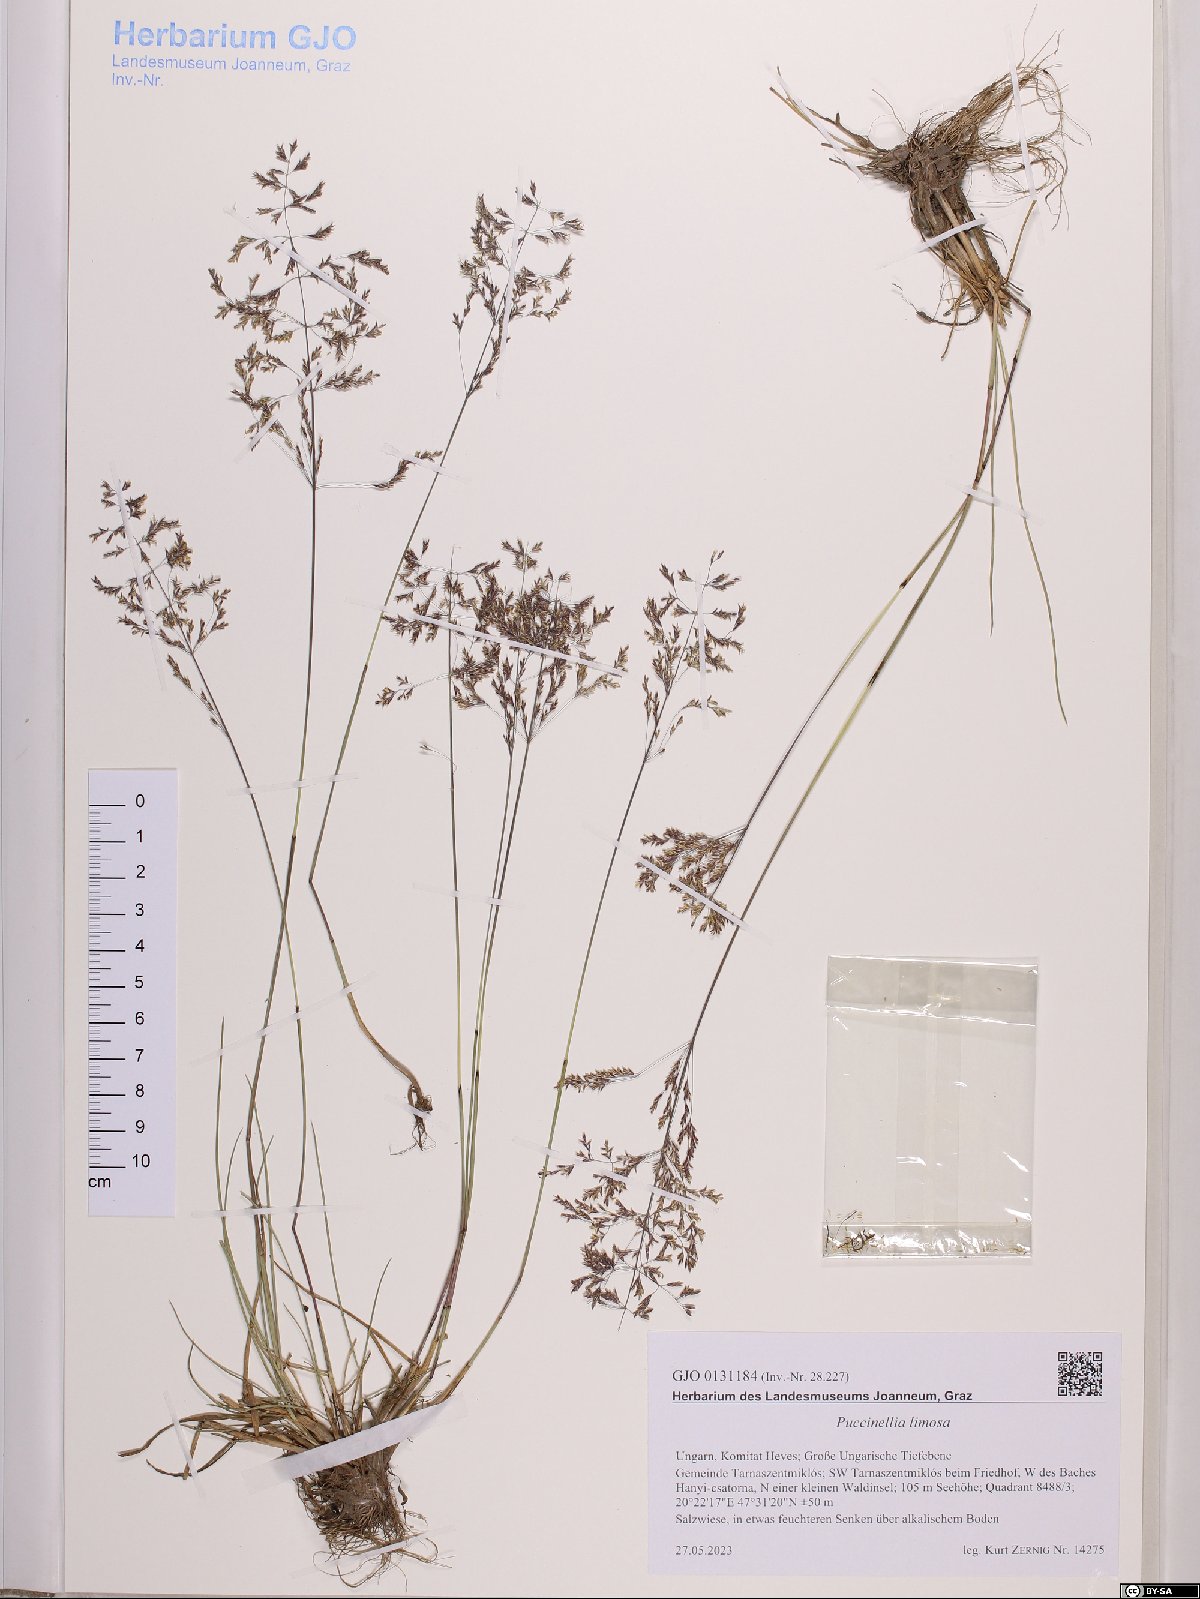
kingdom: Plantae
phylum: Tracheophyta
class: Liliopsida
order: Poales
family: Poaceae
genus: Puccinellia
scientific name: Puccinellia distans
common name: Weeping alkaligrass
